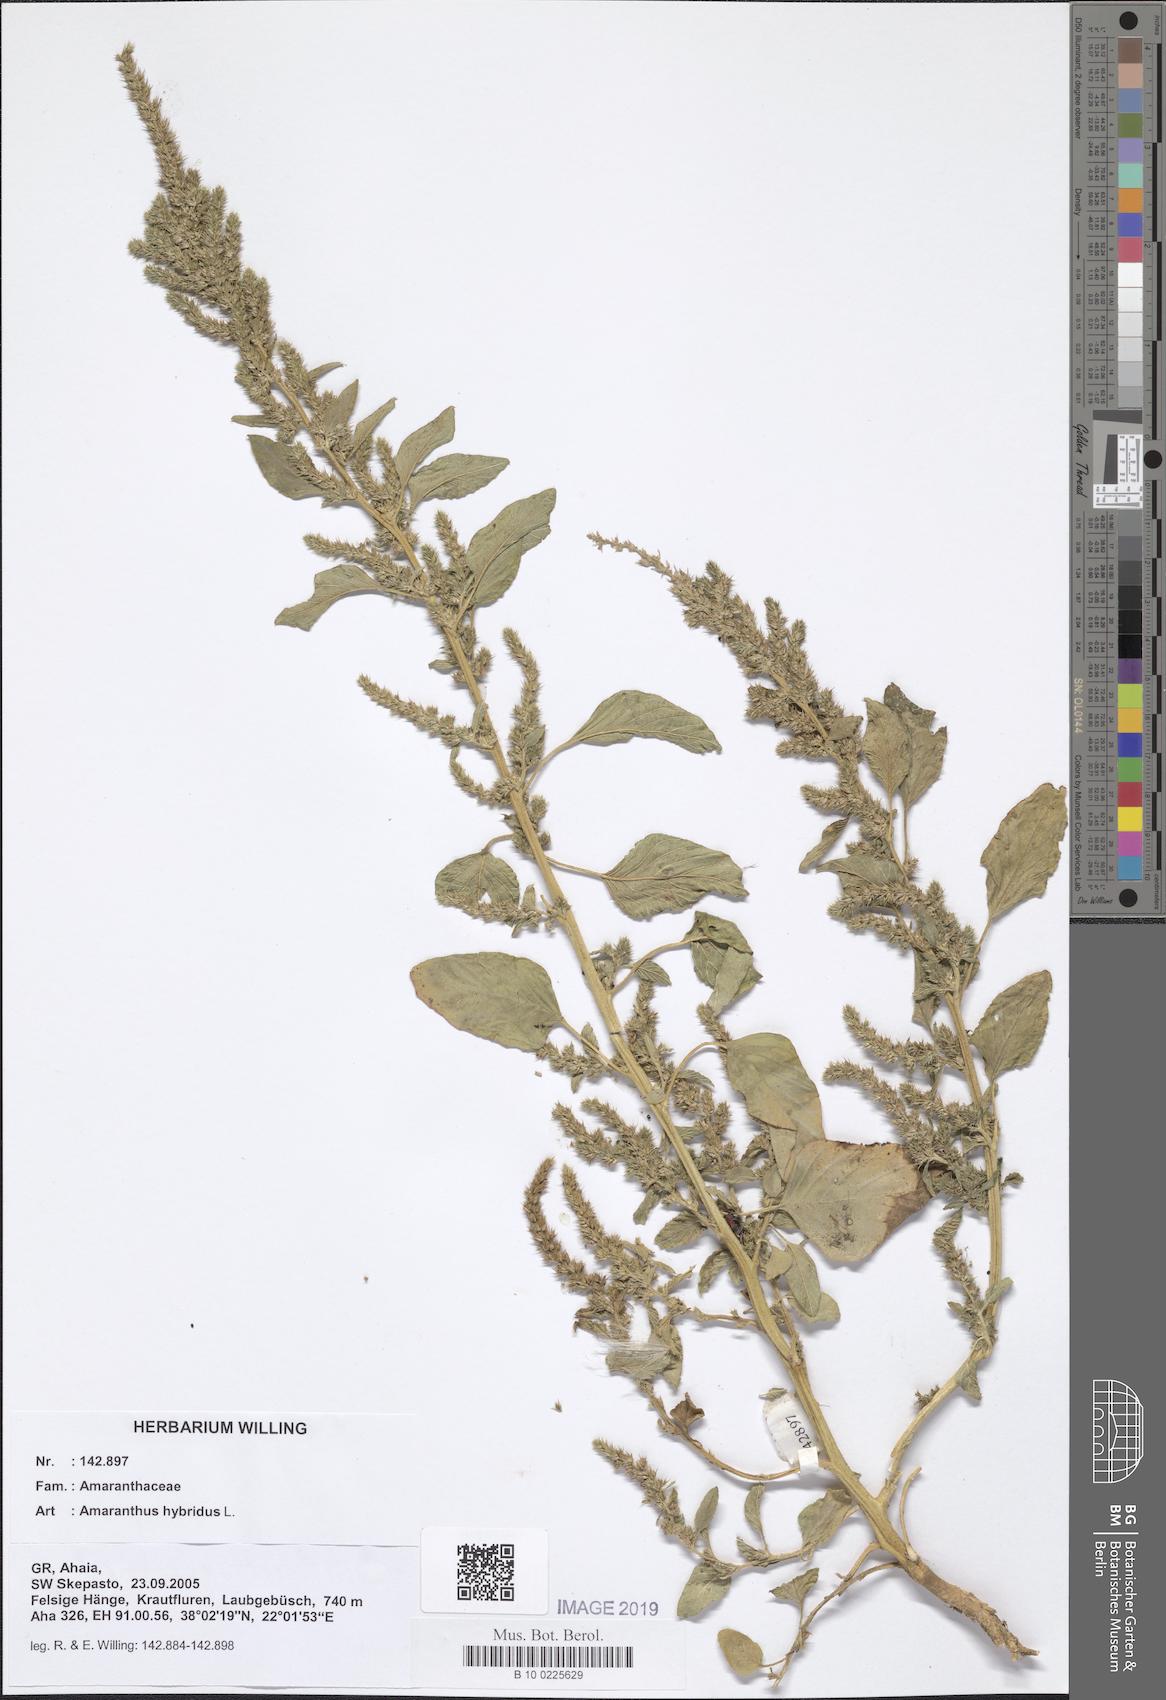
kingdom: Plantae
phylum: Tracheophyta
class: Magnoliopsida
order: Caryophyllales
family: Amaranthaceae
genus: Amaranthus
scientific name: Amaranthus hybridus
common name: Green amaranth
